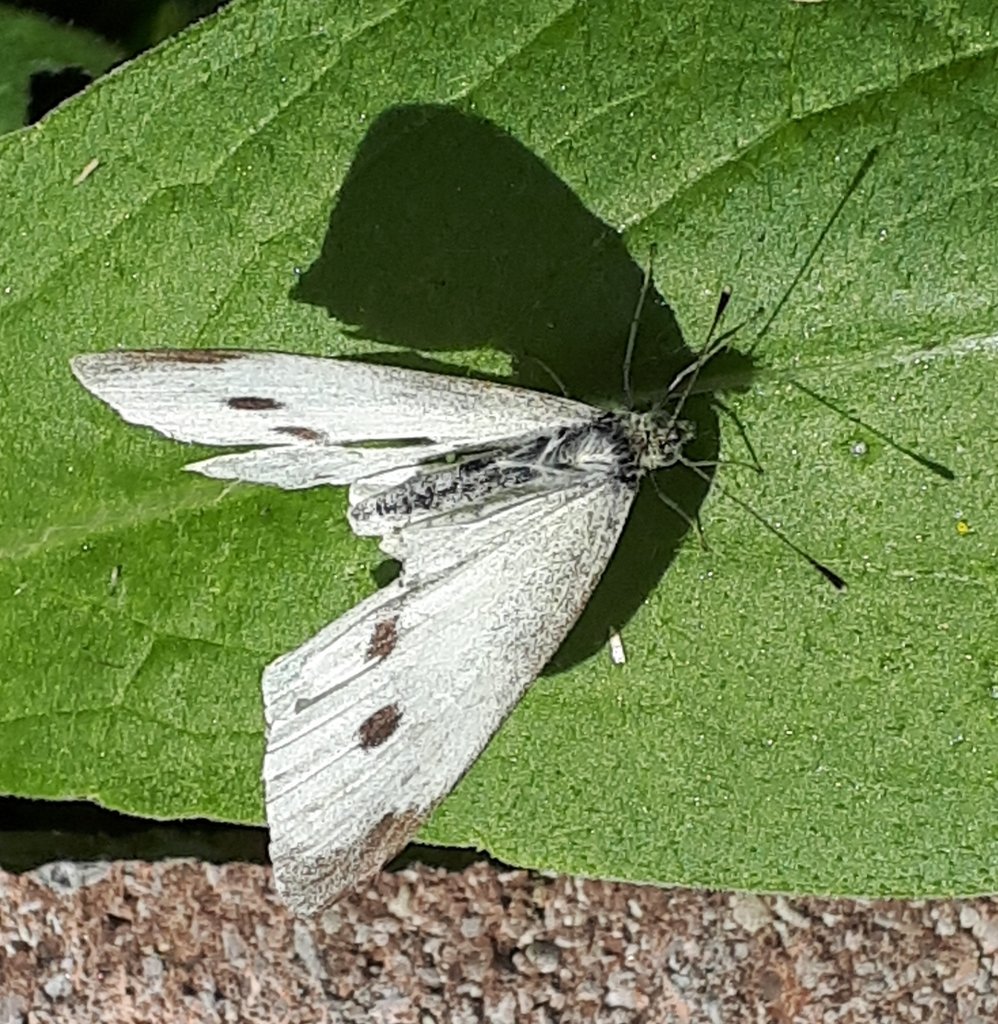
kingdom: Animalia
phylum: Arthropoda
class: Insecta
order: Lepidoptera
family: Pieridae
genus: Pieris
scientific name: Pieris rapae
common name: Cabbage White
